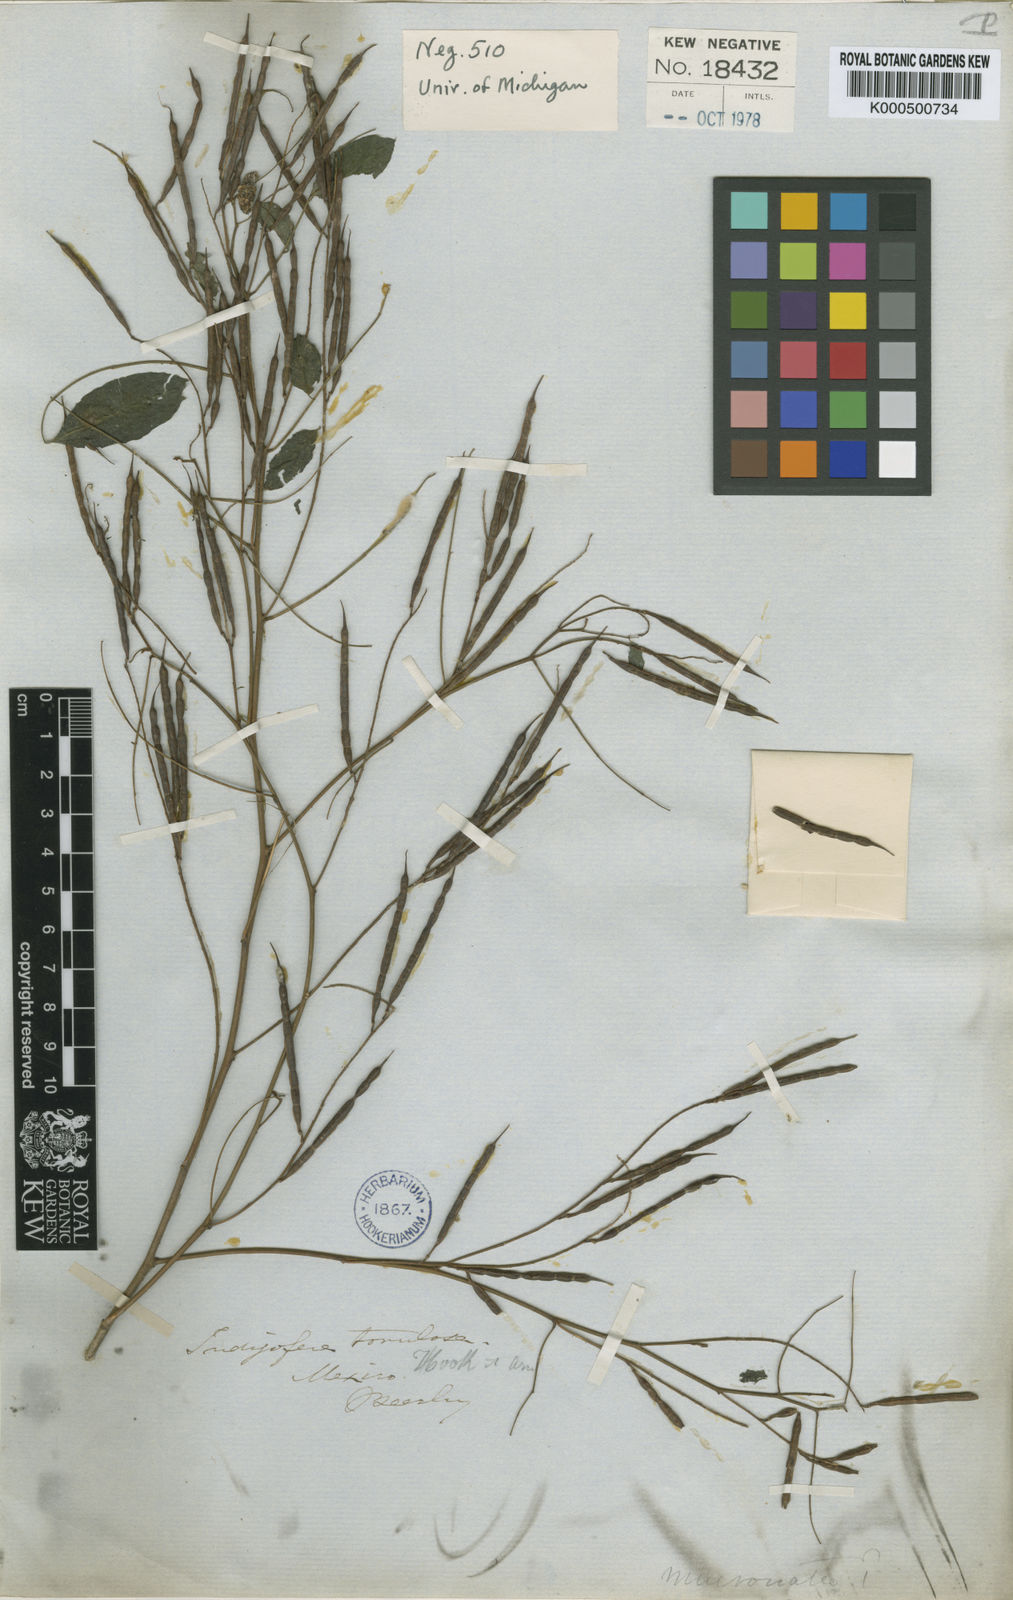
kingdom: Plantae
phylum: Tracheophyta
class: Magnoliopsida
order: Fabales
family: Fabaceae
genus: Indigofera
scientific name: Indigofera langlassei
